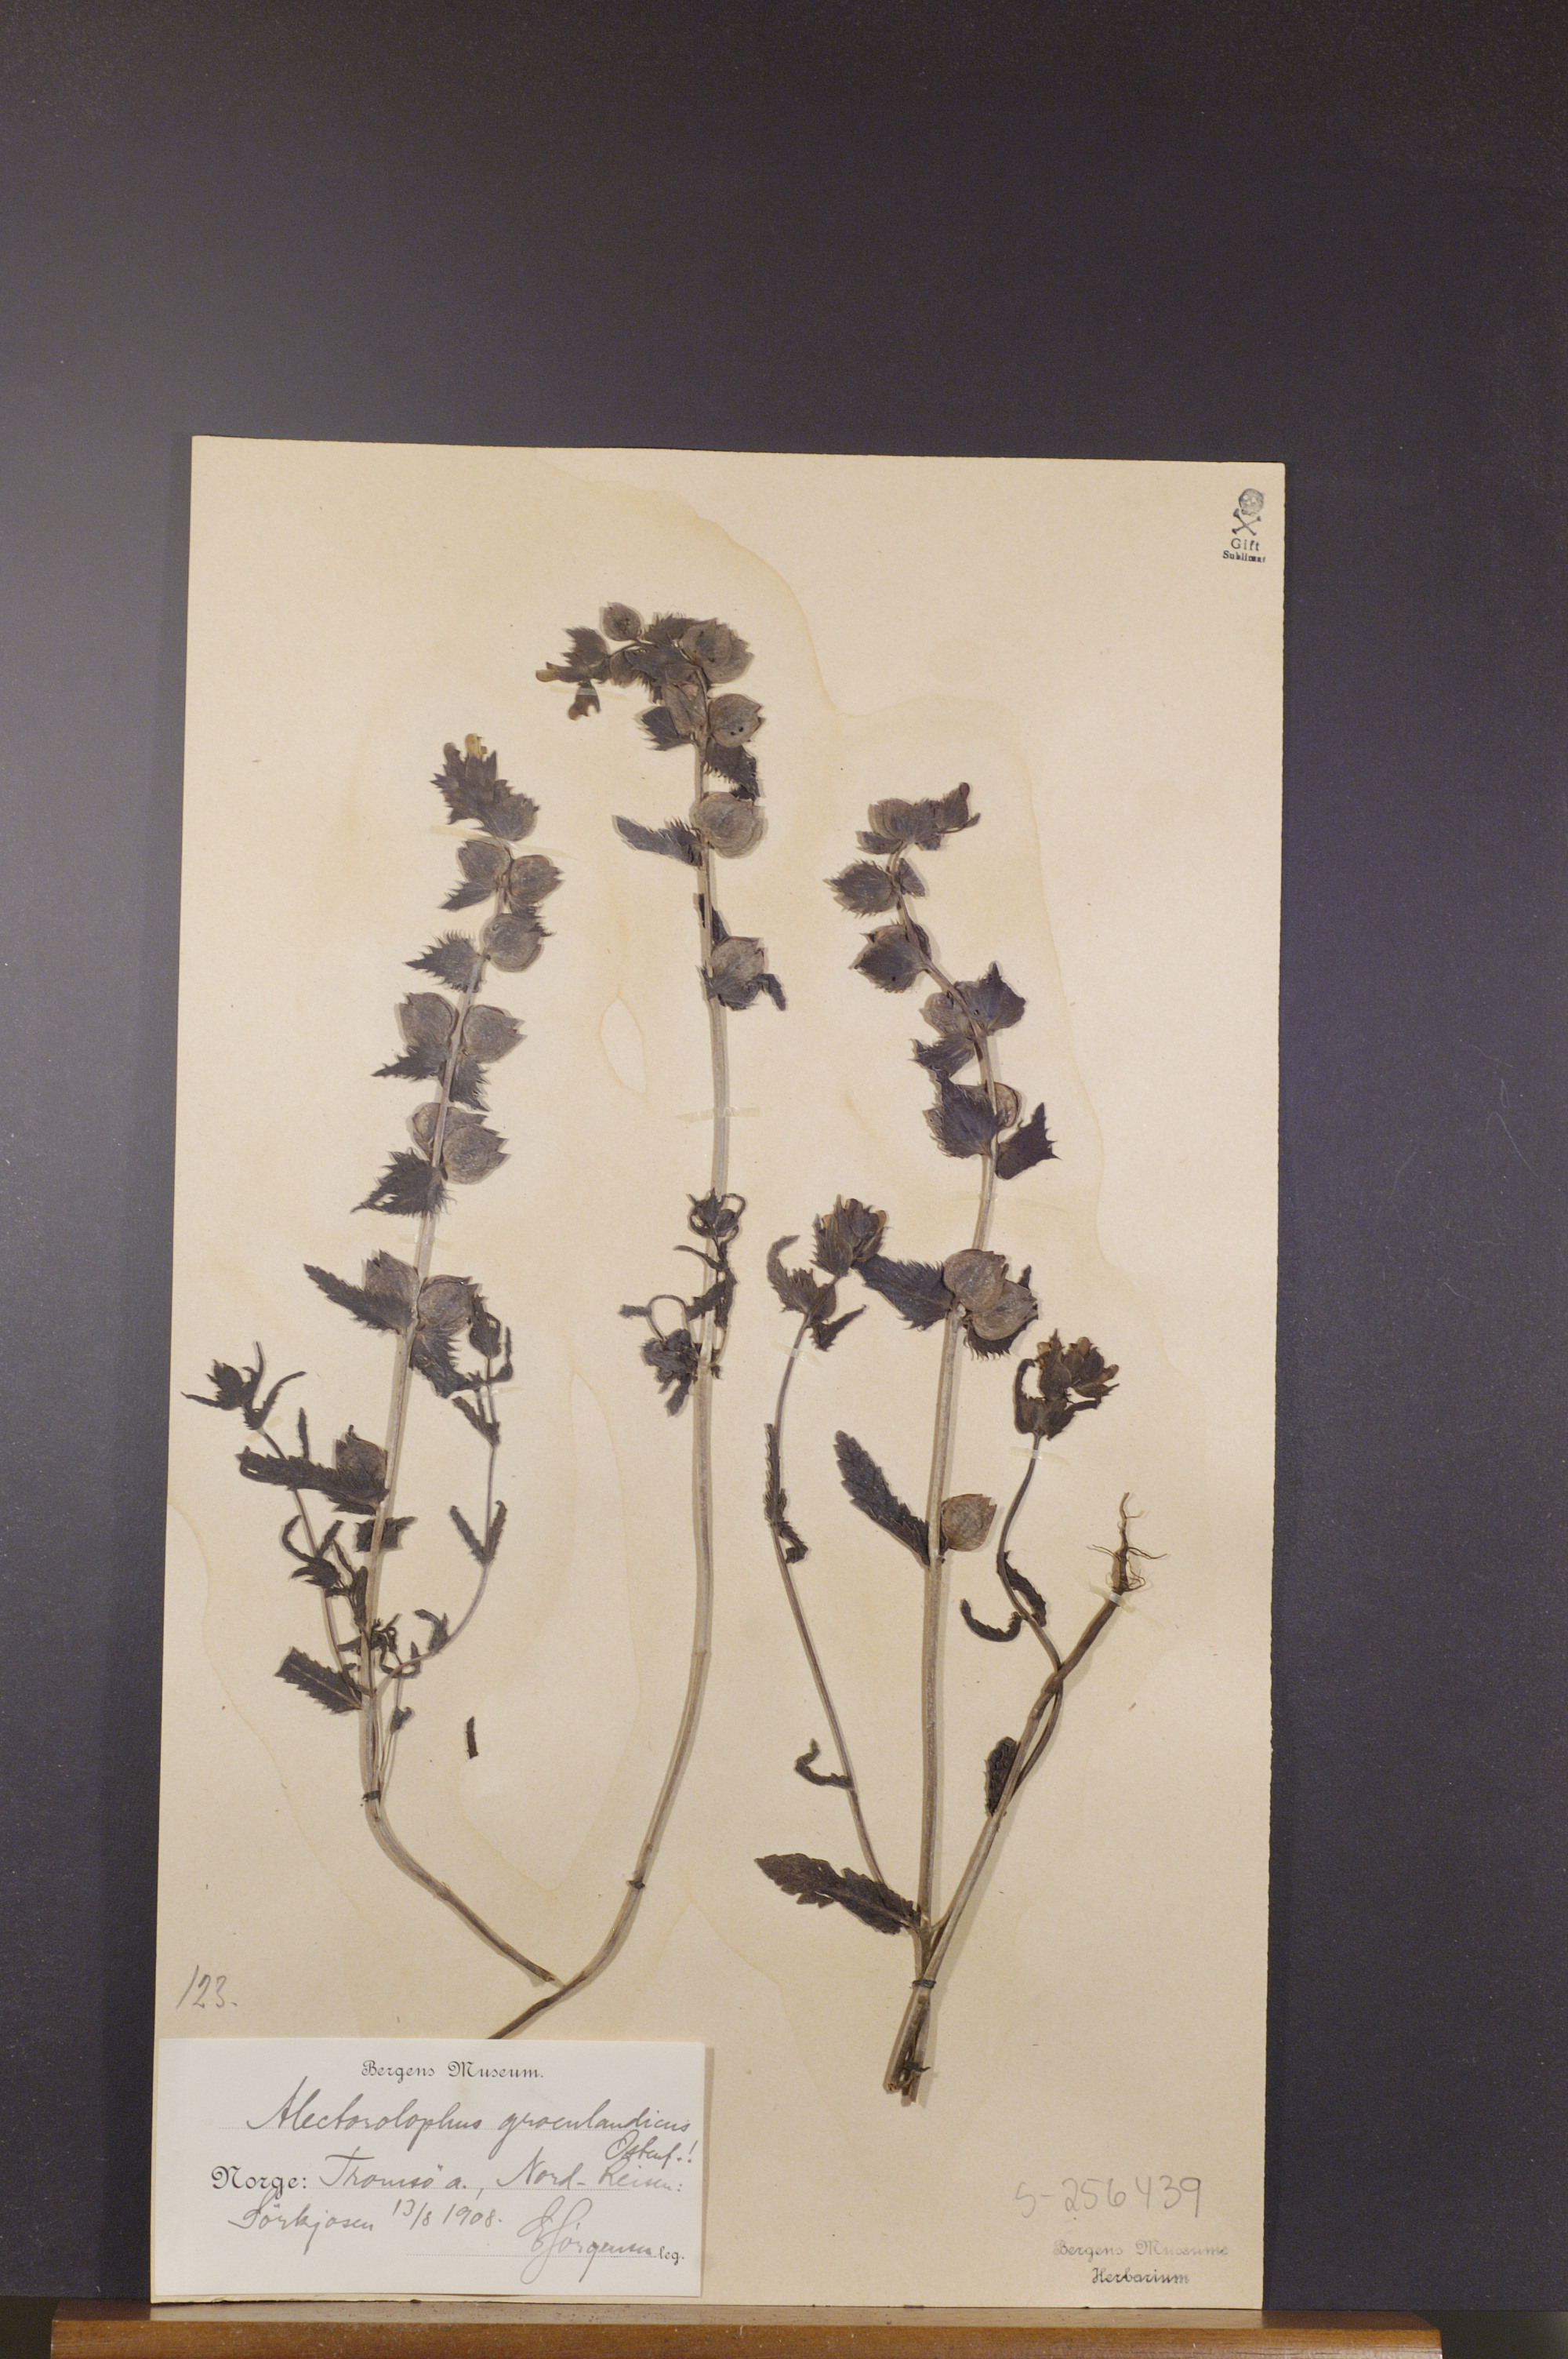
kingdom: Plantae
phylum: Tracheophyta
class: Magnoliopsida
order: Lamiales
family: Orobanchaceae
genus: Rhinanthus
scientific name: Rhinanthus groenlandicus
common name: Little yellow rattle
